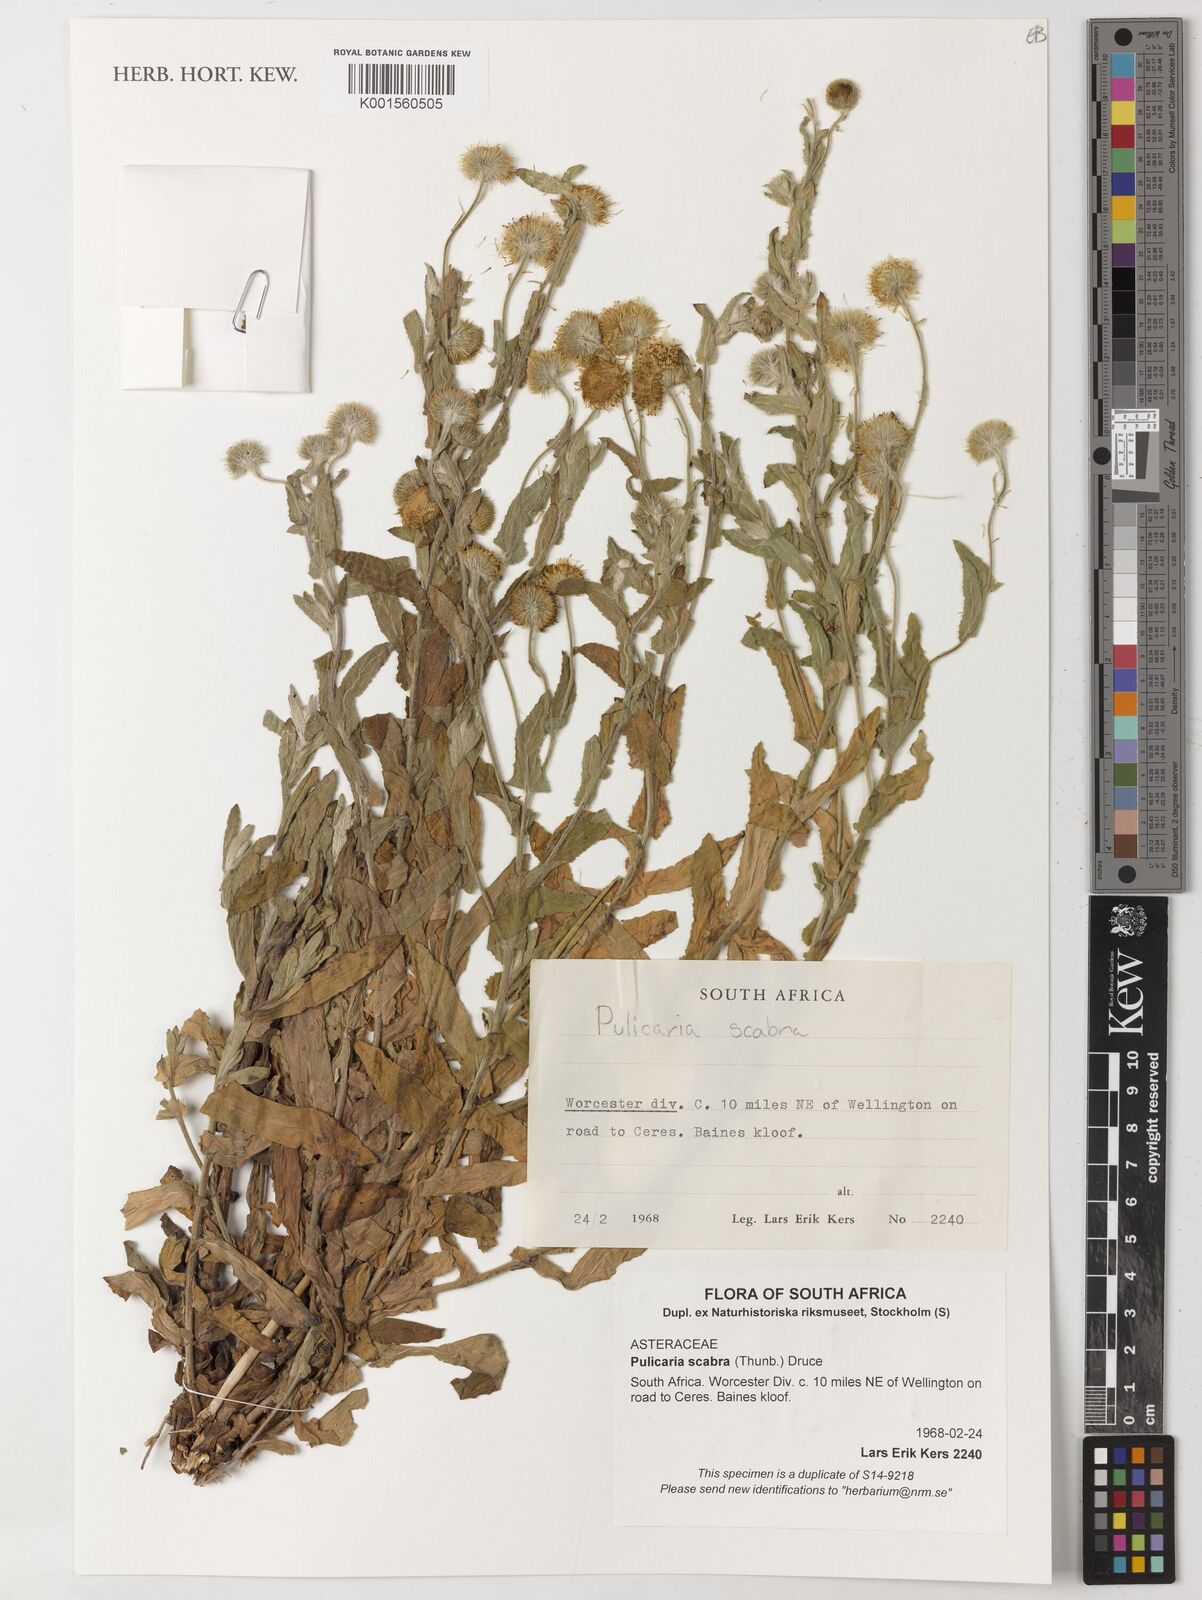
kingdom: Plantae
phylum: Tracheophyta
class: Magnoliopsida
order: Asterales
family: Asteraceae
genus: Pulicaria
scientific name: Pulicaria scabra
